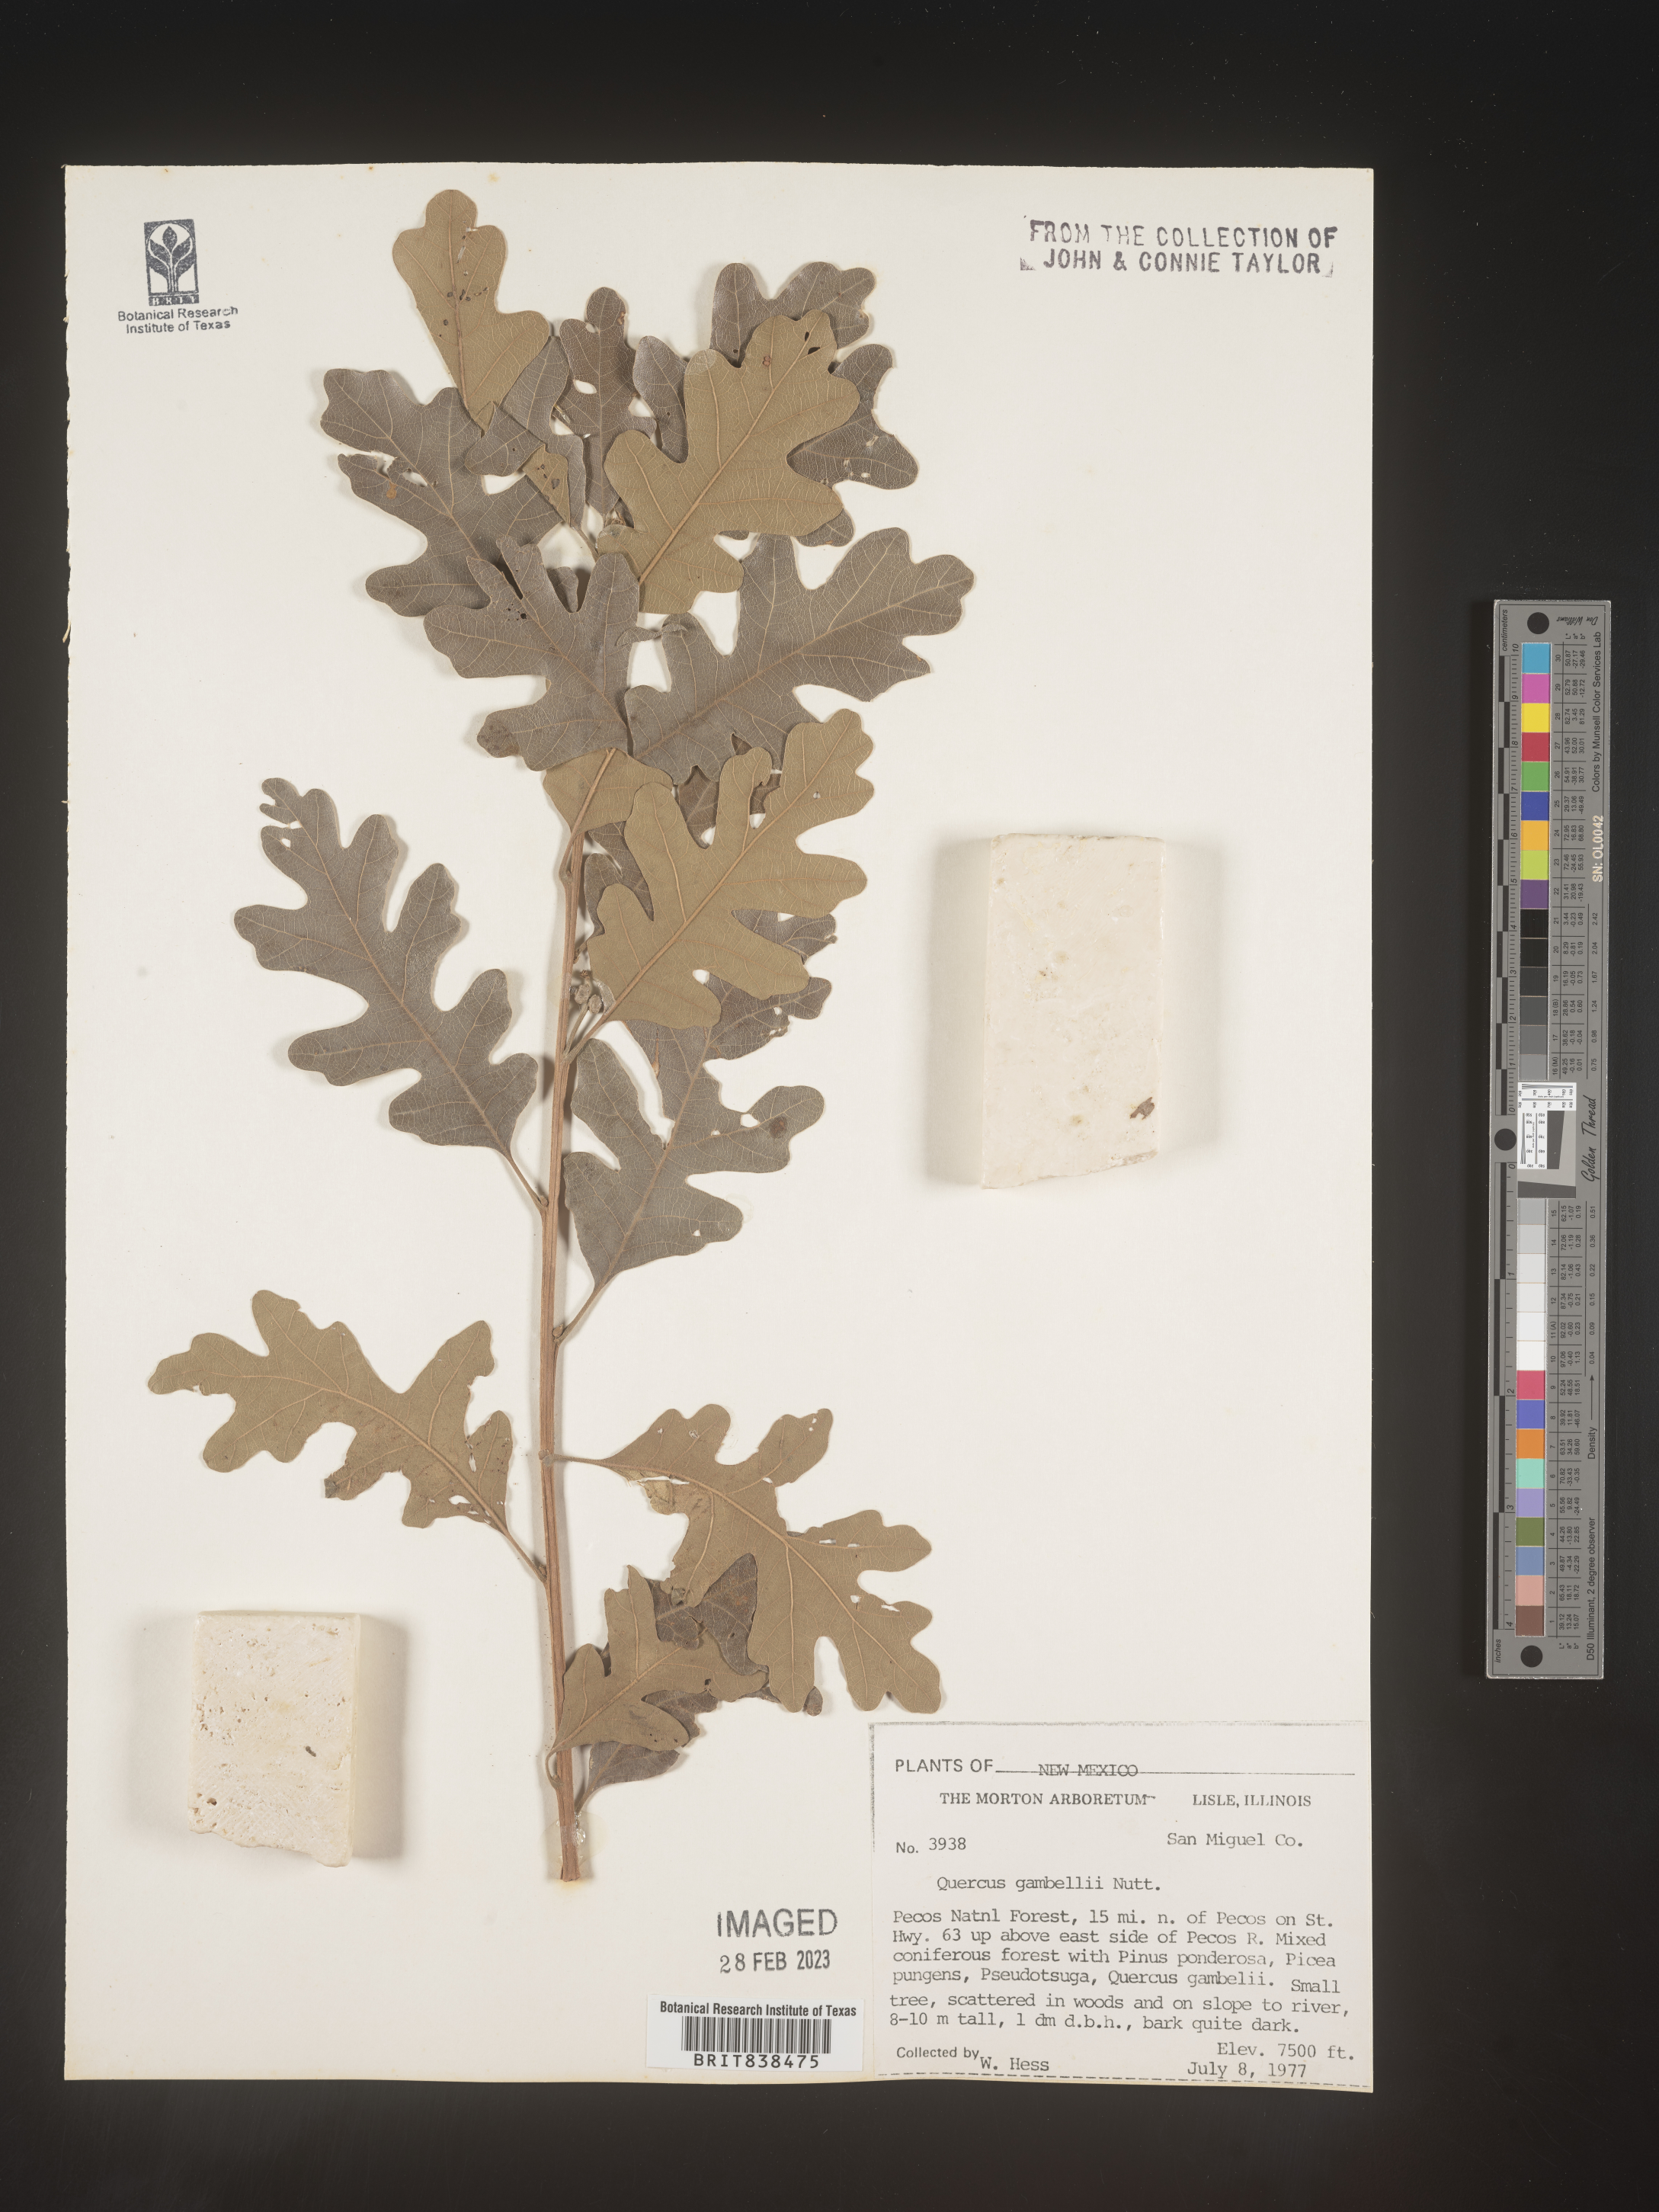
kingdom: Plantae
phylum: Tracheophyta
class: Magnoliopsida
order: Fagales
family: Fagaceae
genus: Quercus
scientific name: Quercus gambelii
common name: Gambel oak
